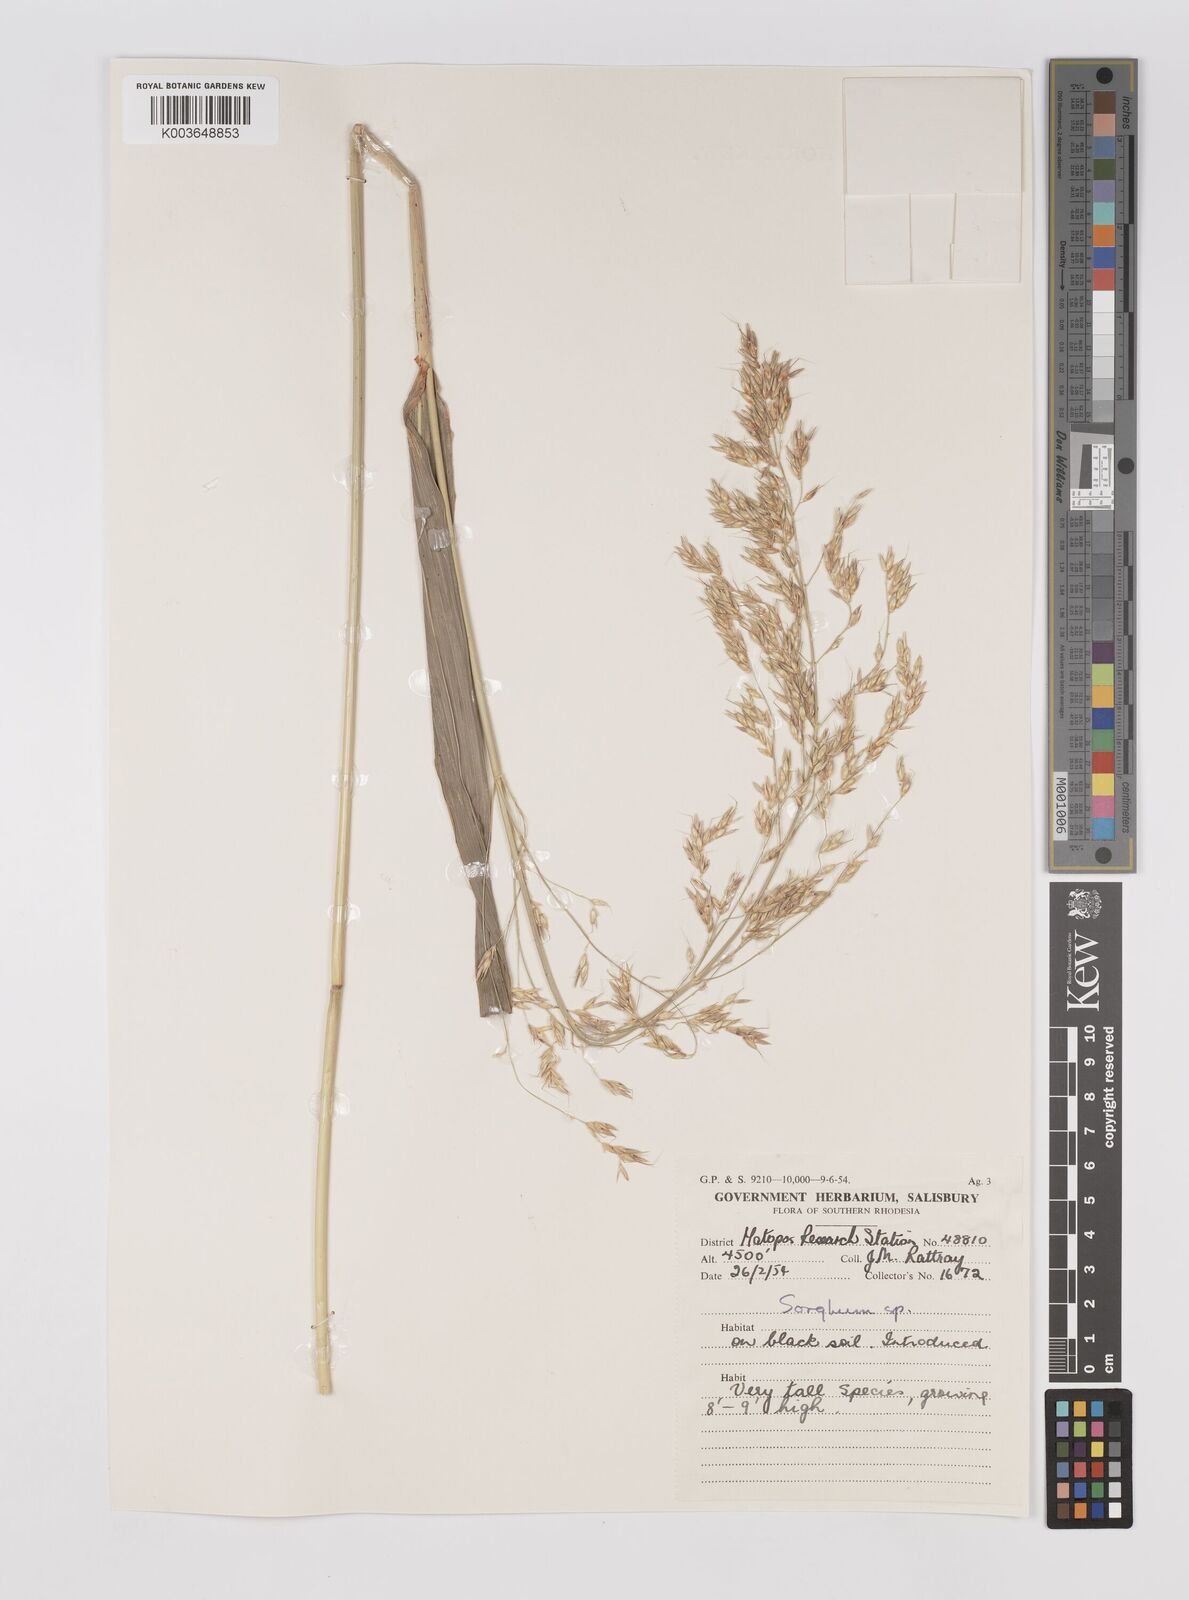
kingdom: Plantae
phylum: Tracheophyta
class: Liliopsida
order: Poales
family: Poaceae
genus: Sorghum
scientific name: Sorghum arundinaceum
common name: Sorghum
